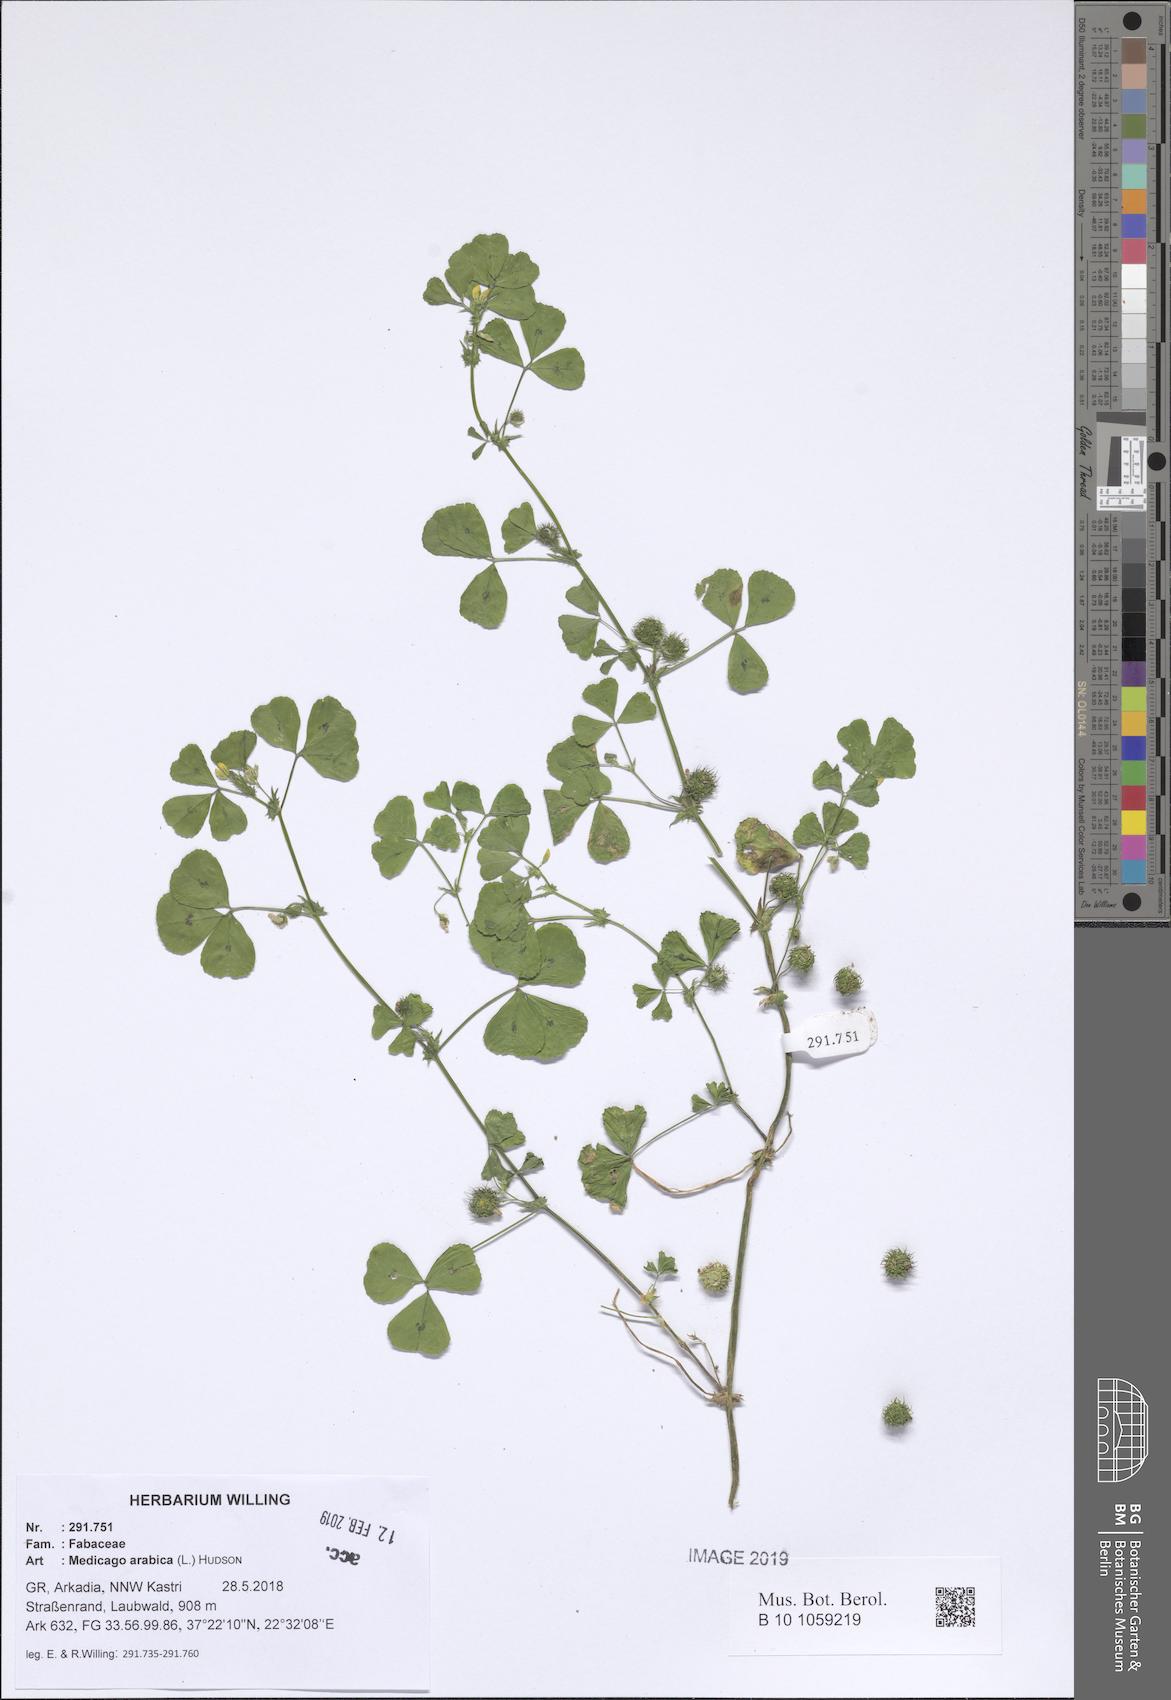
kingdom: Plantae
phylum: Tracheophyta
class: Magnoliopsida
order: Fabales
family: Fabaceae
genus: Medicago
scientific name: Medicago arabica
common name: Spotted medick
